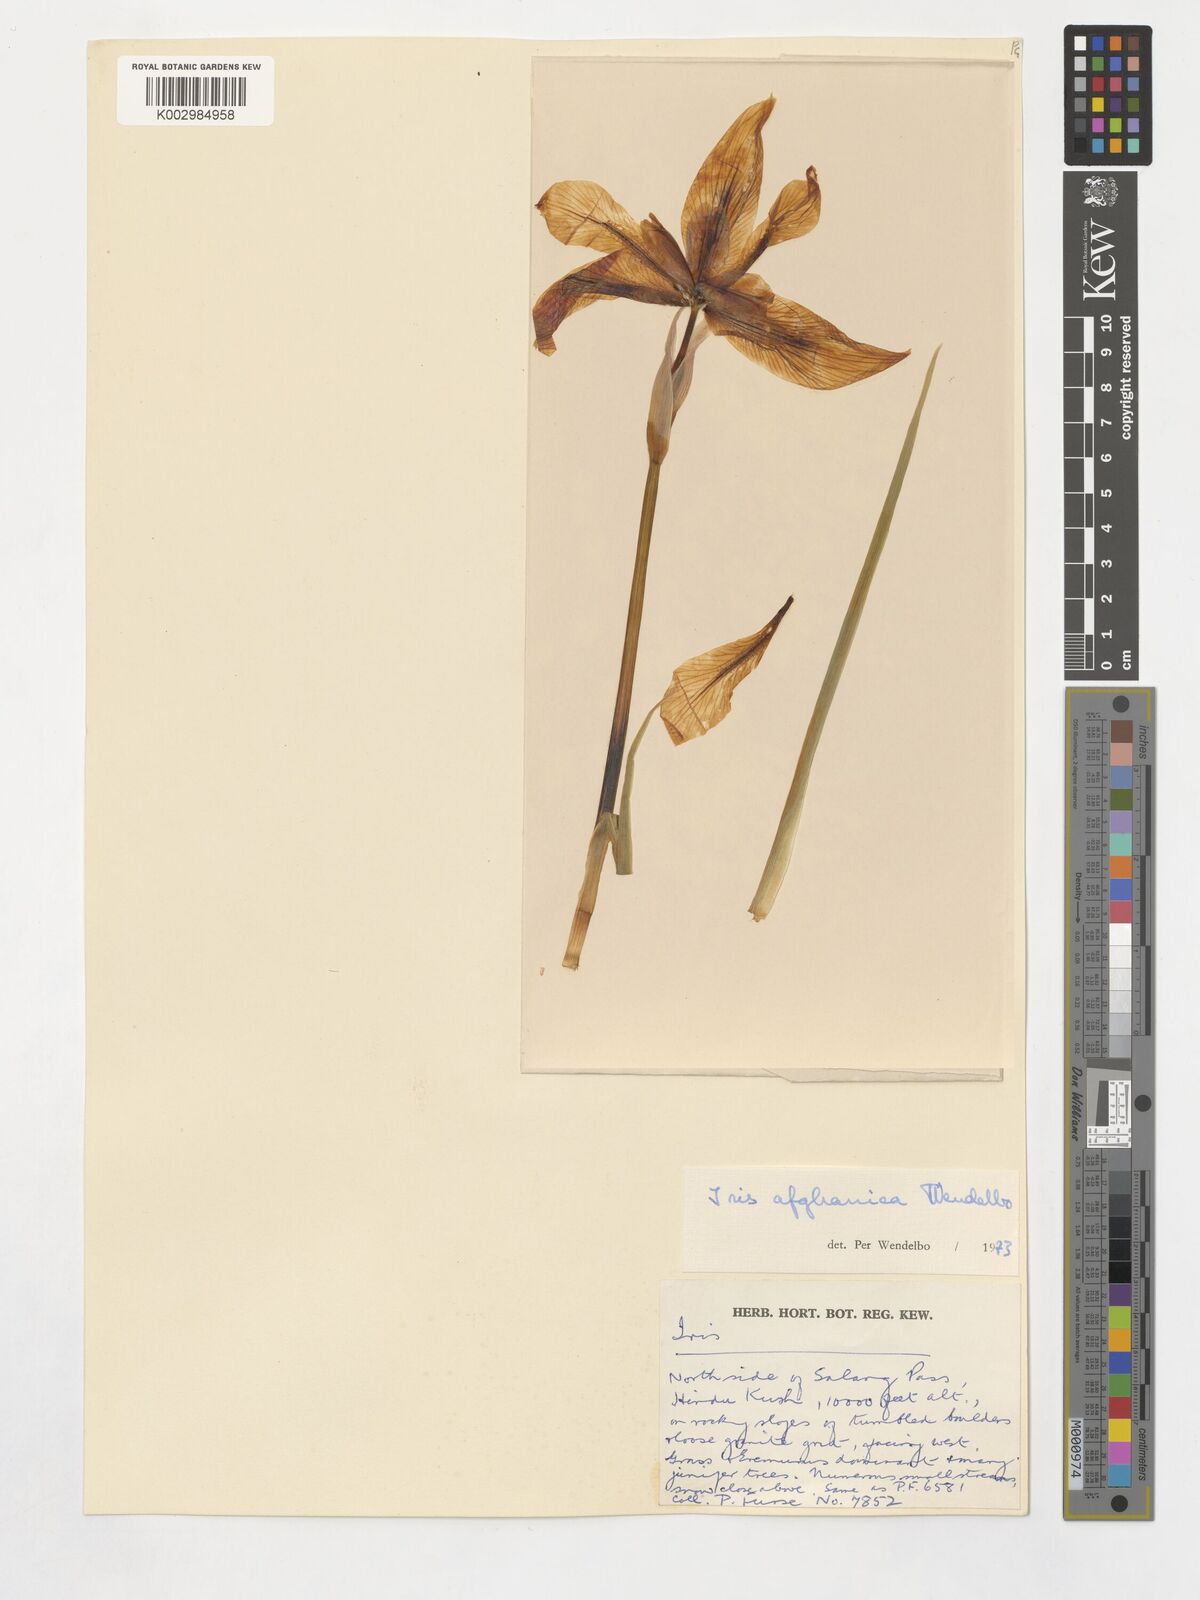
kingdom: Plantae
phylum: Tracheophyta
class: Liliopsida
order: Asparagales
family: Iridaceae
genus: Iris
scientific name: Iris afghanica
